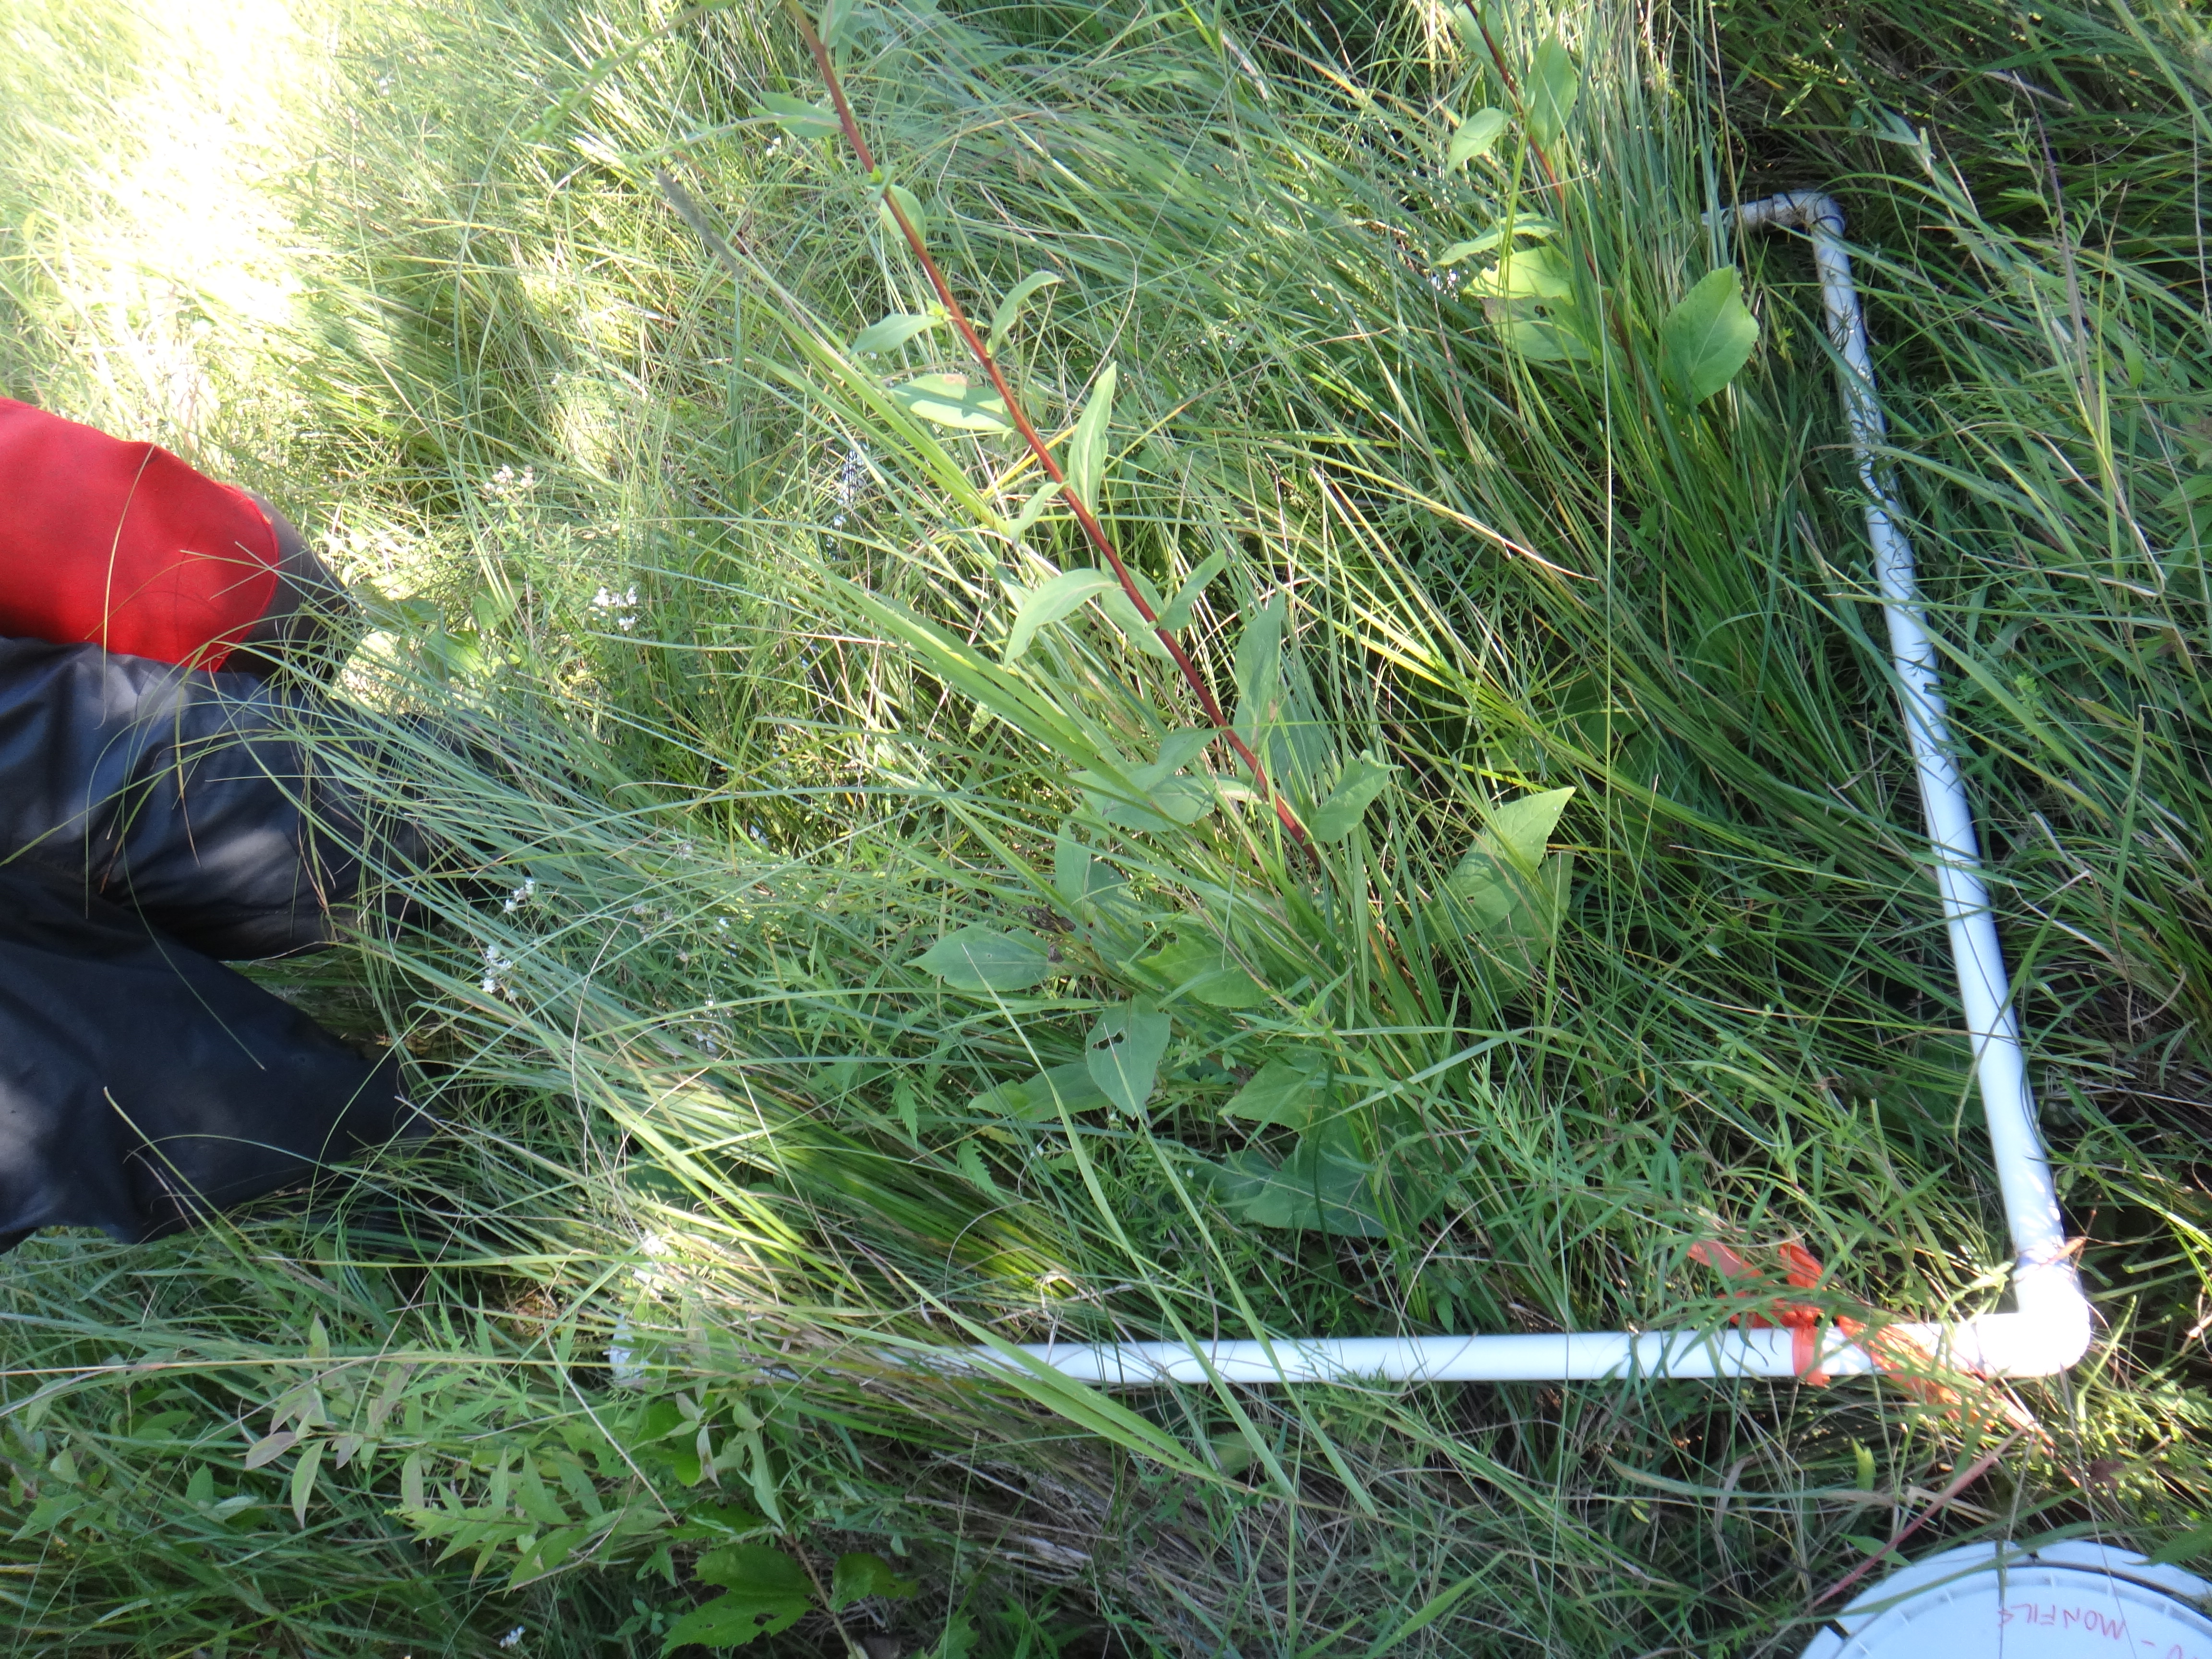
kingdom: Plantae
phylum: Tracheophyta
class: Magnoliopsida
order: Asterales
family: Asteraceae
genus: Eutrochium
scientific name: Eutrochium maculatum
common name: Spotted joe pye weed
